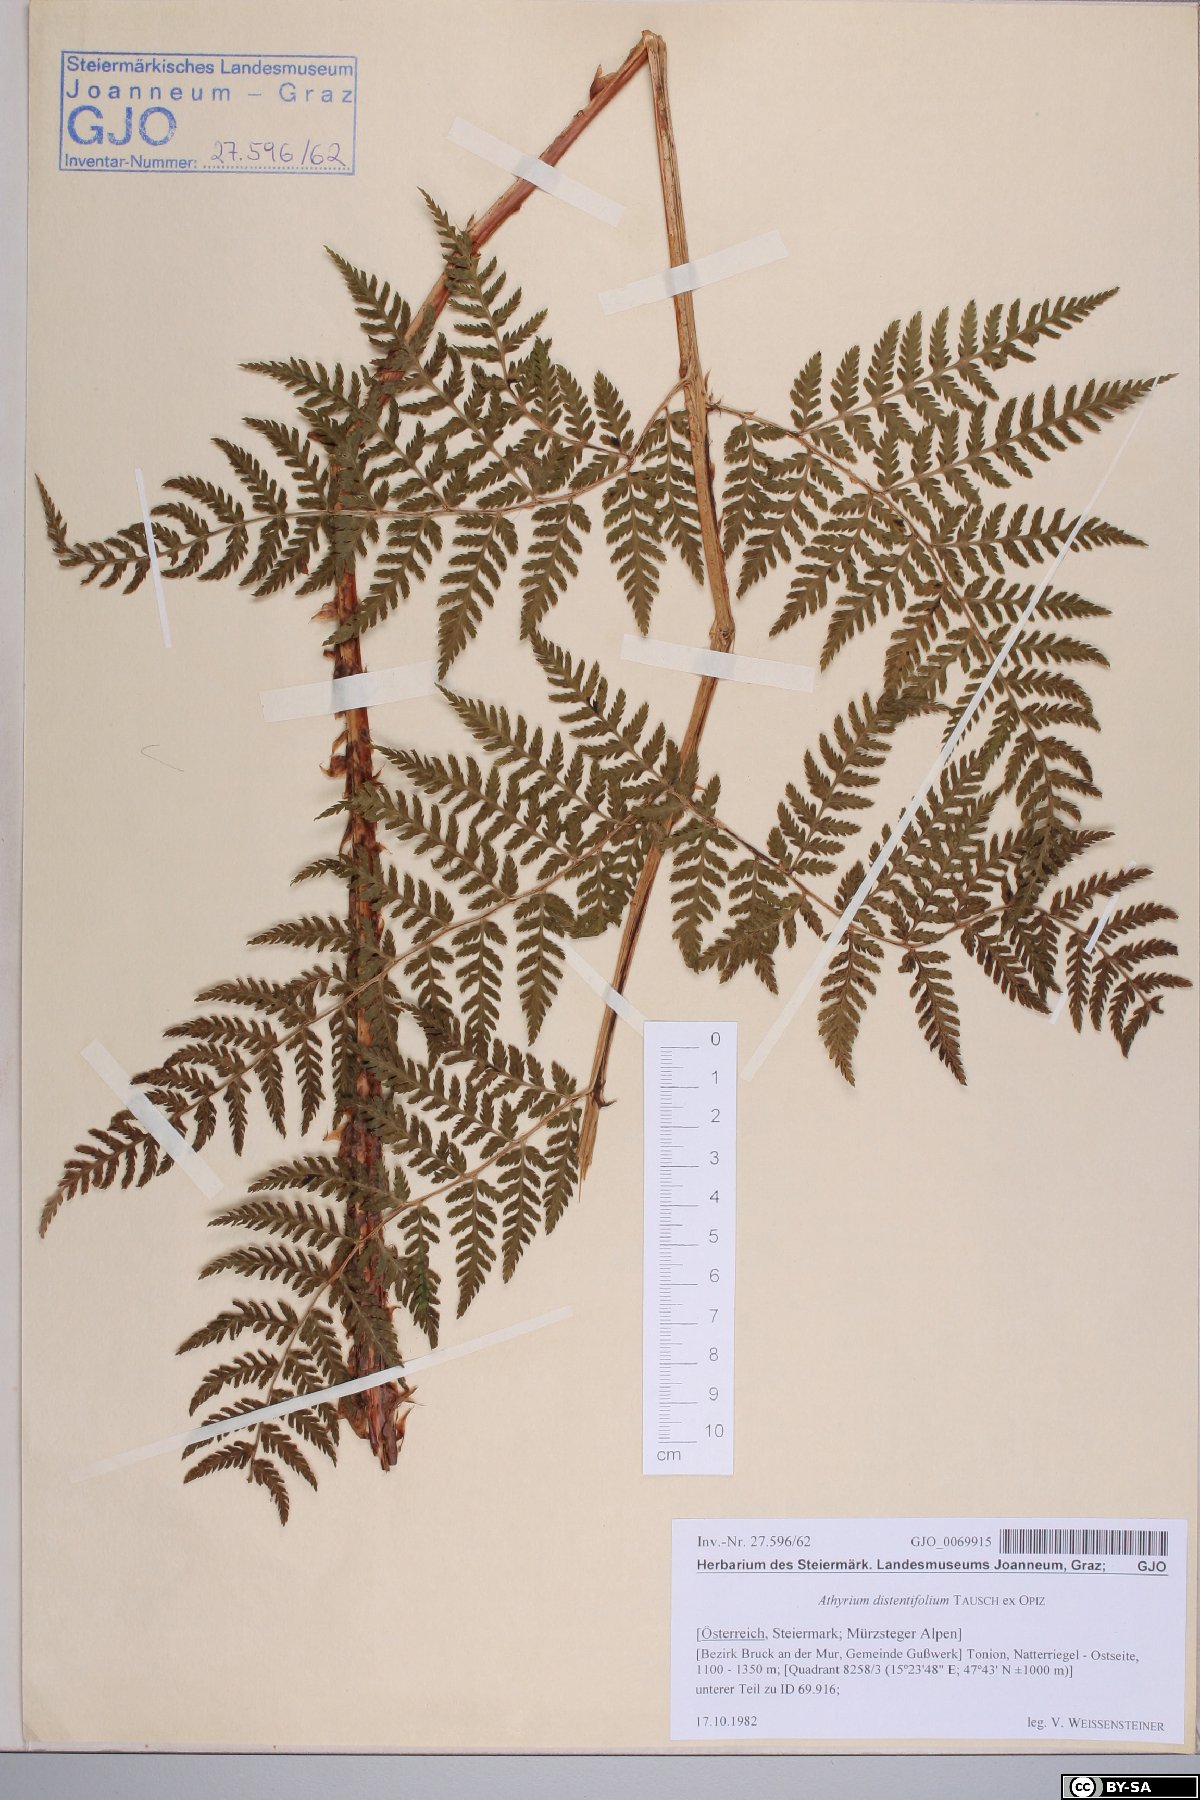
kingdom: Plantae
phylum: Tracheophyta
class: Polypodiopsida
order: Polypodiales
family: Athyriaceae
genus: Pseudathyrium
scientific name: Pseudathyrium alpestre
